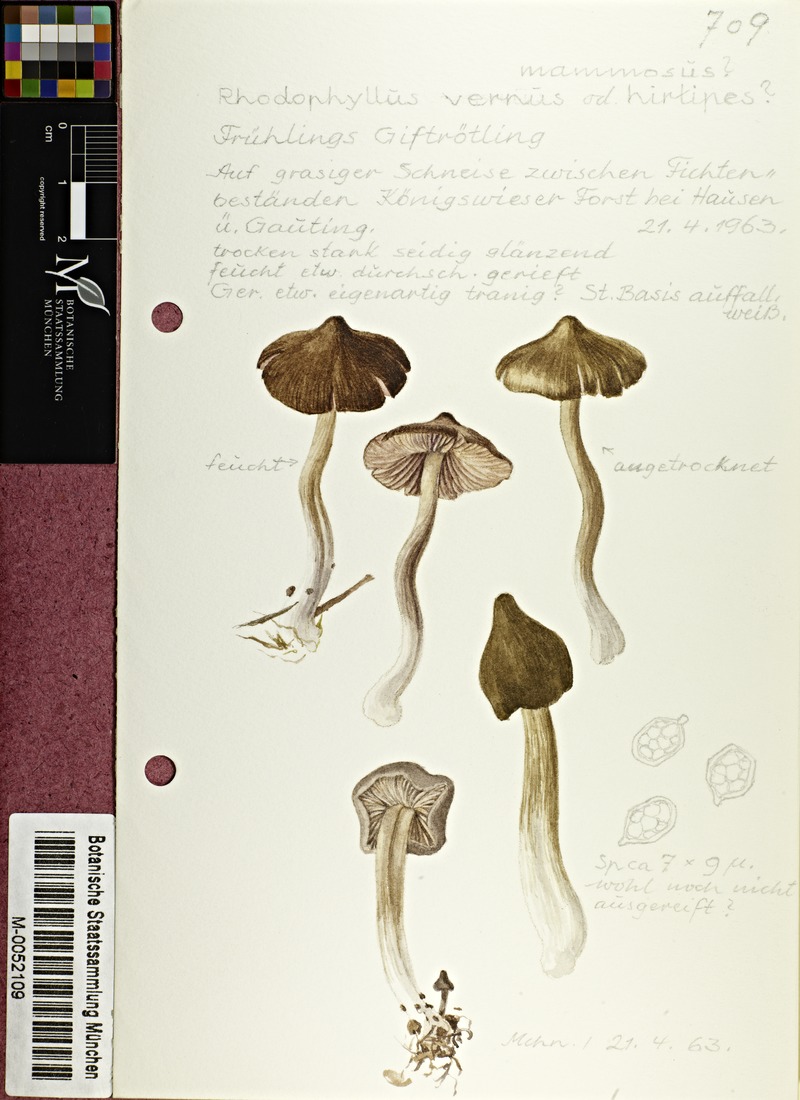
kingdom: Fungi
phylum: Basidiomycota
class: Agaricomycetes
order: Agaricales
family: Entolomataceae
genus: Entoloma
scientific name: Entoloma vernum
